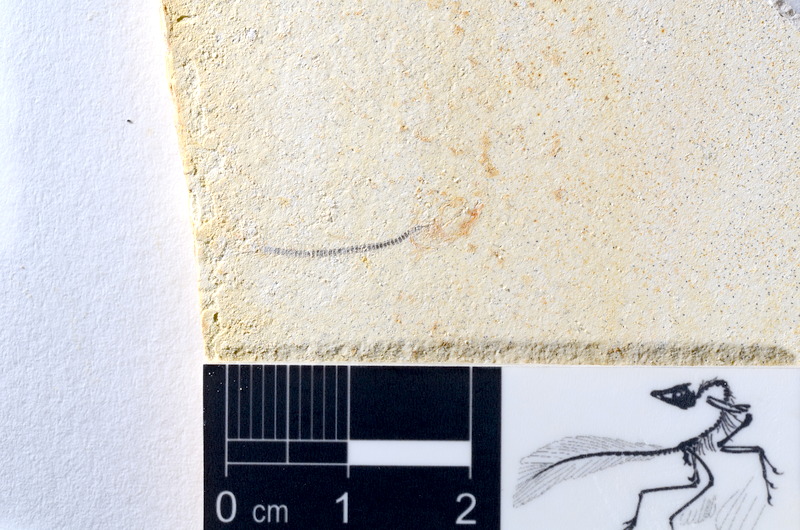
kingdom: Animalia
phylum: Chordata
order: Salmoniformes
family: Orthogonikleithridae
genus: Orthogonikleithrus
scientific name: Orthogonikleithrus hoelli
